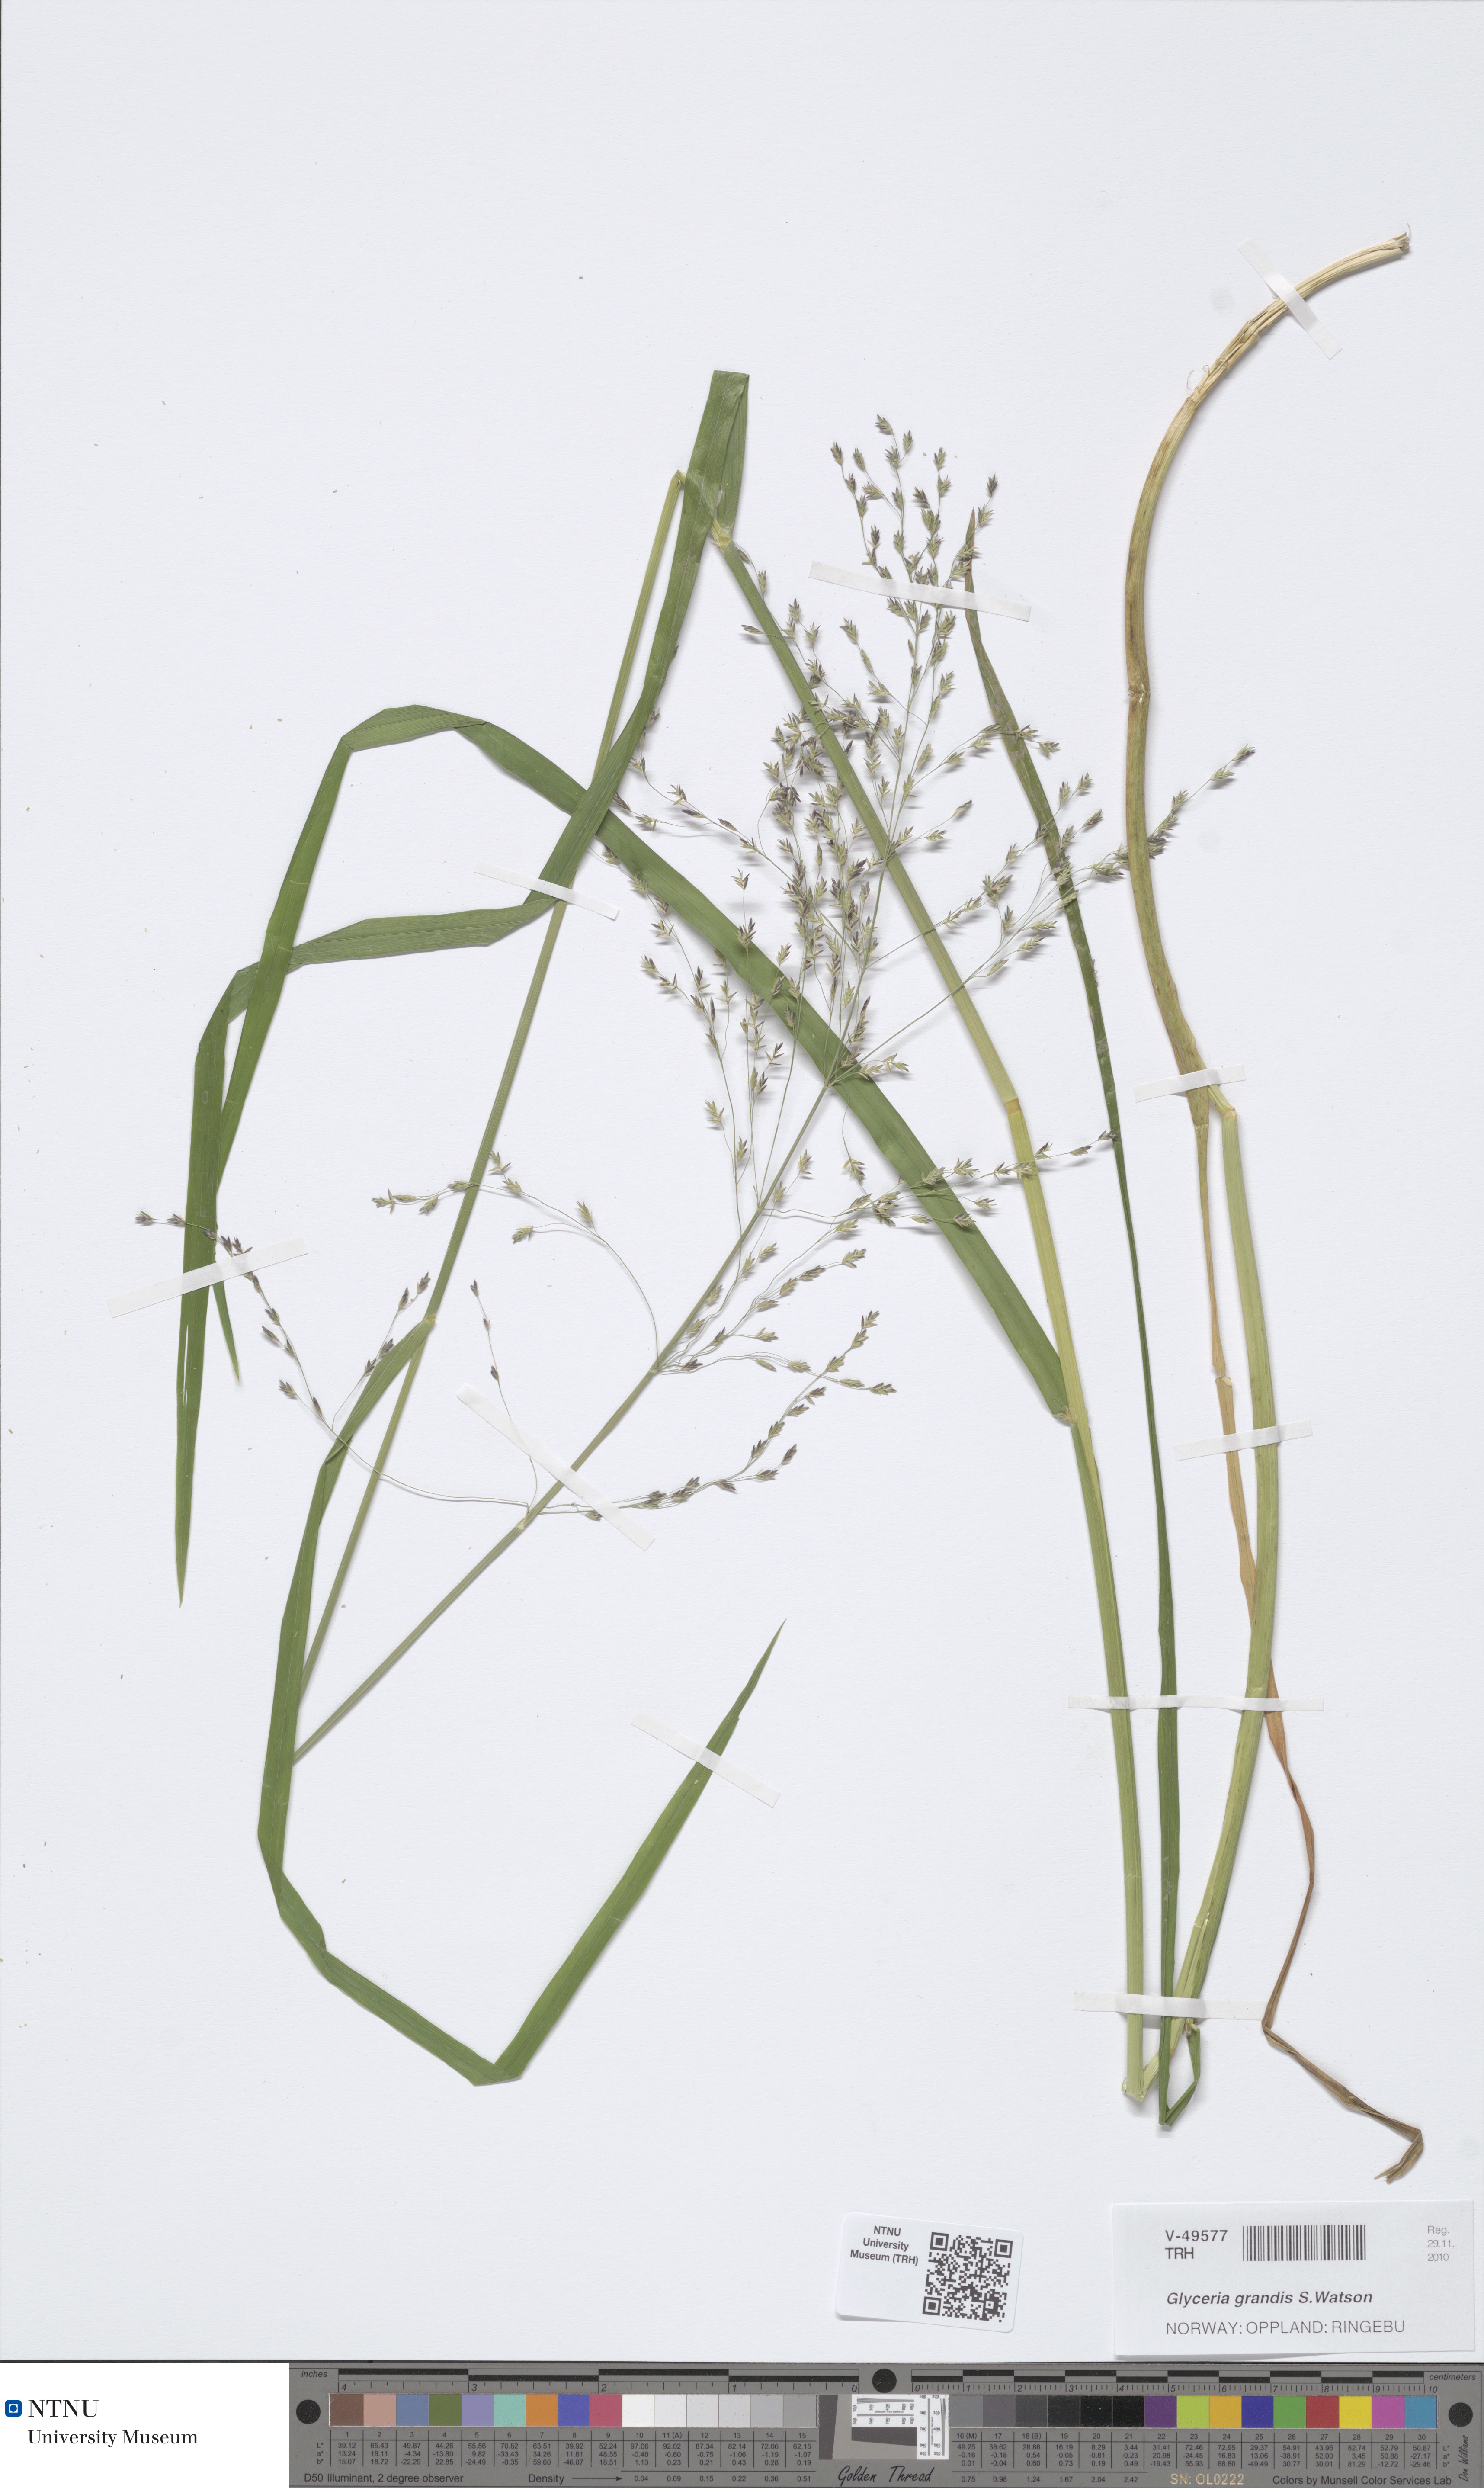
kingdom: Plantae
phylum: Tracheophyta
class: Liliopsida
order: Poales
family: Poaceae
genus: Glyceria
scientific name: Glyceria grandis
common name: American glyceria
